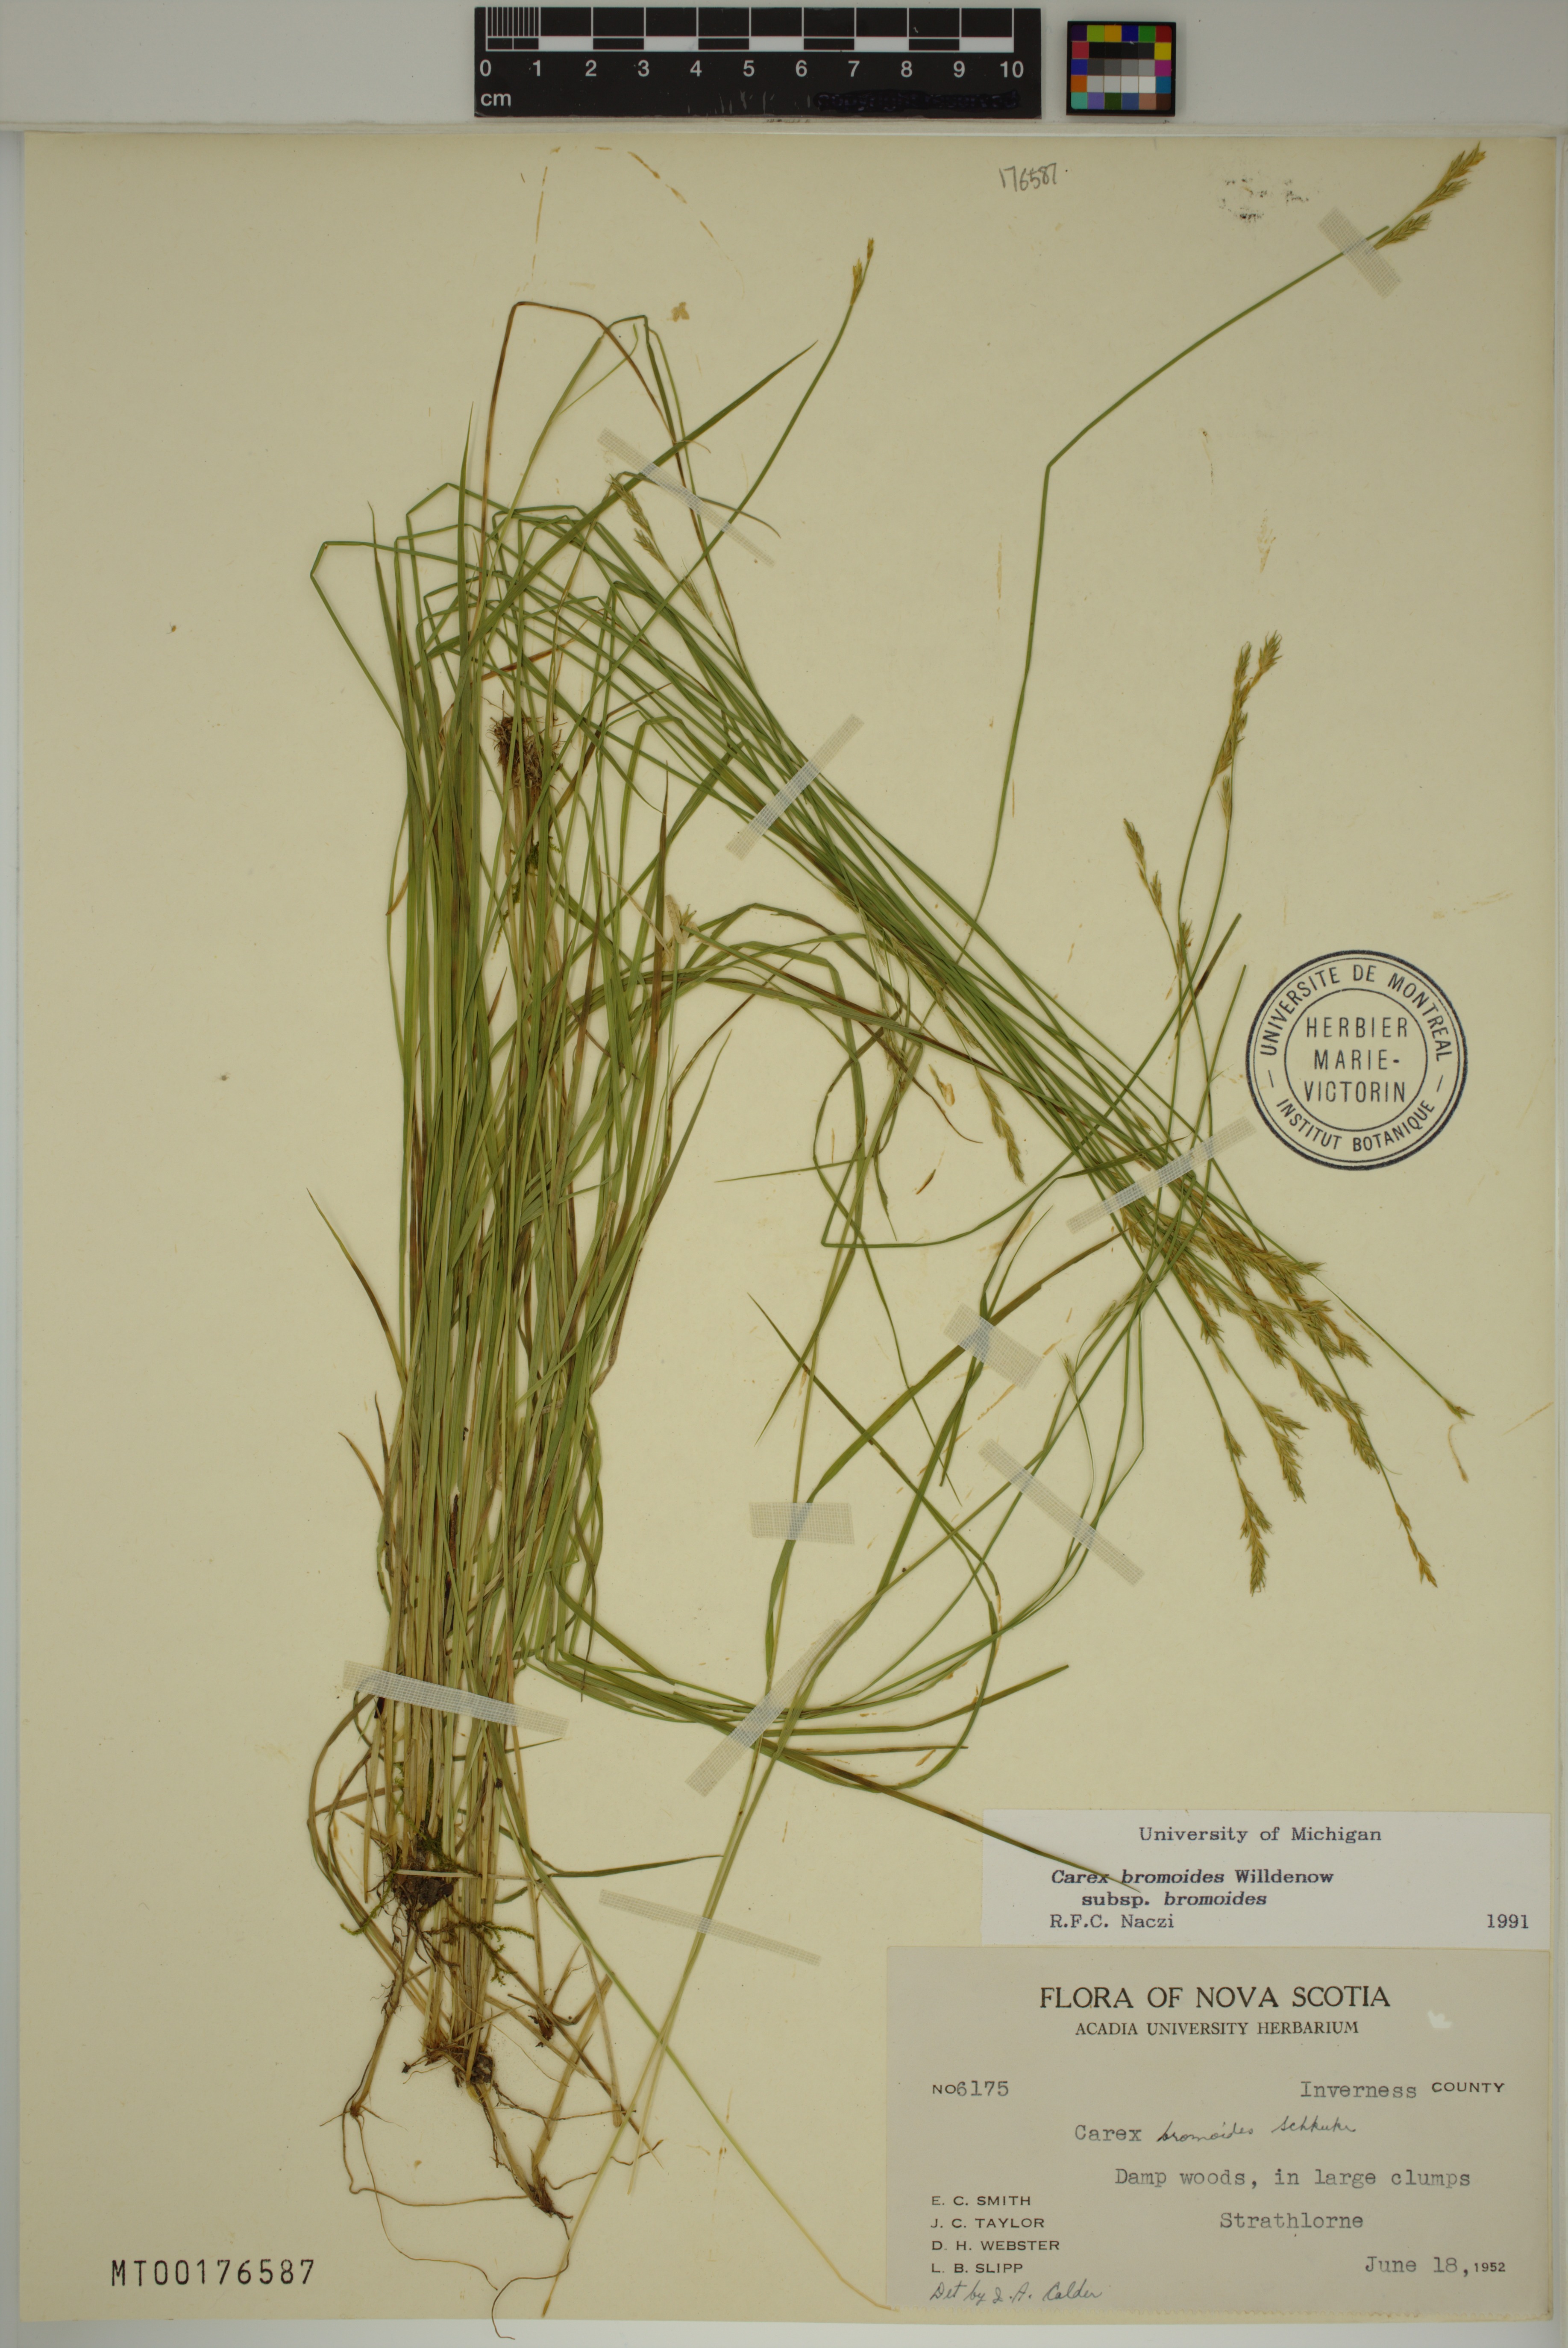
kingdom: Plantae
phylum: Tracheophyta
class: Liliopsida
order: Poales
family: Cyperaceae
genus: Carex
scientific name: Carex bromoides
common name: Brome hummock sedge
